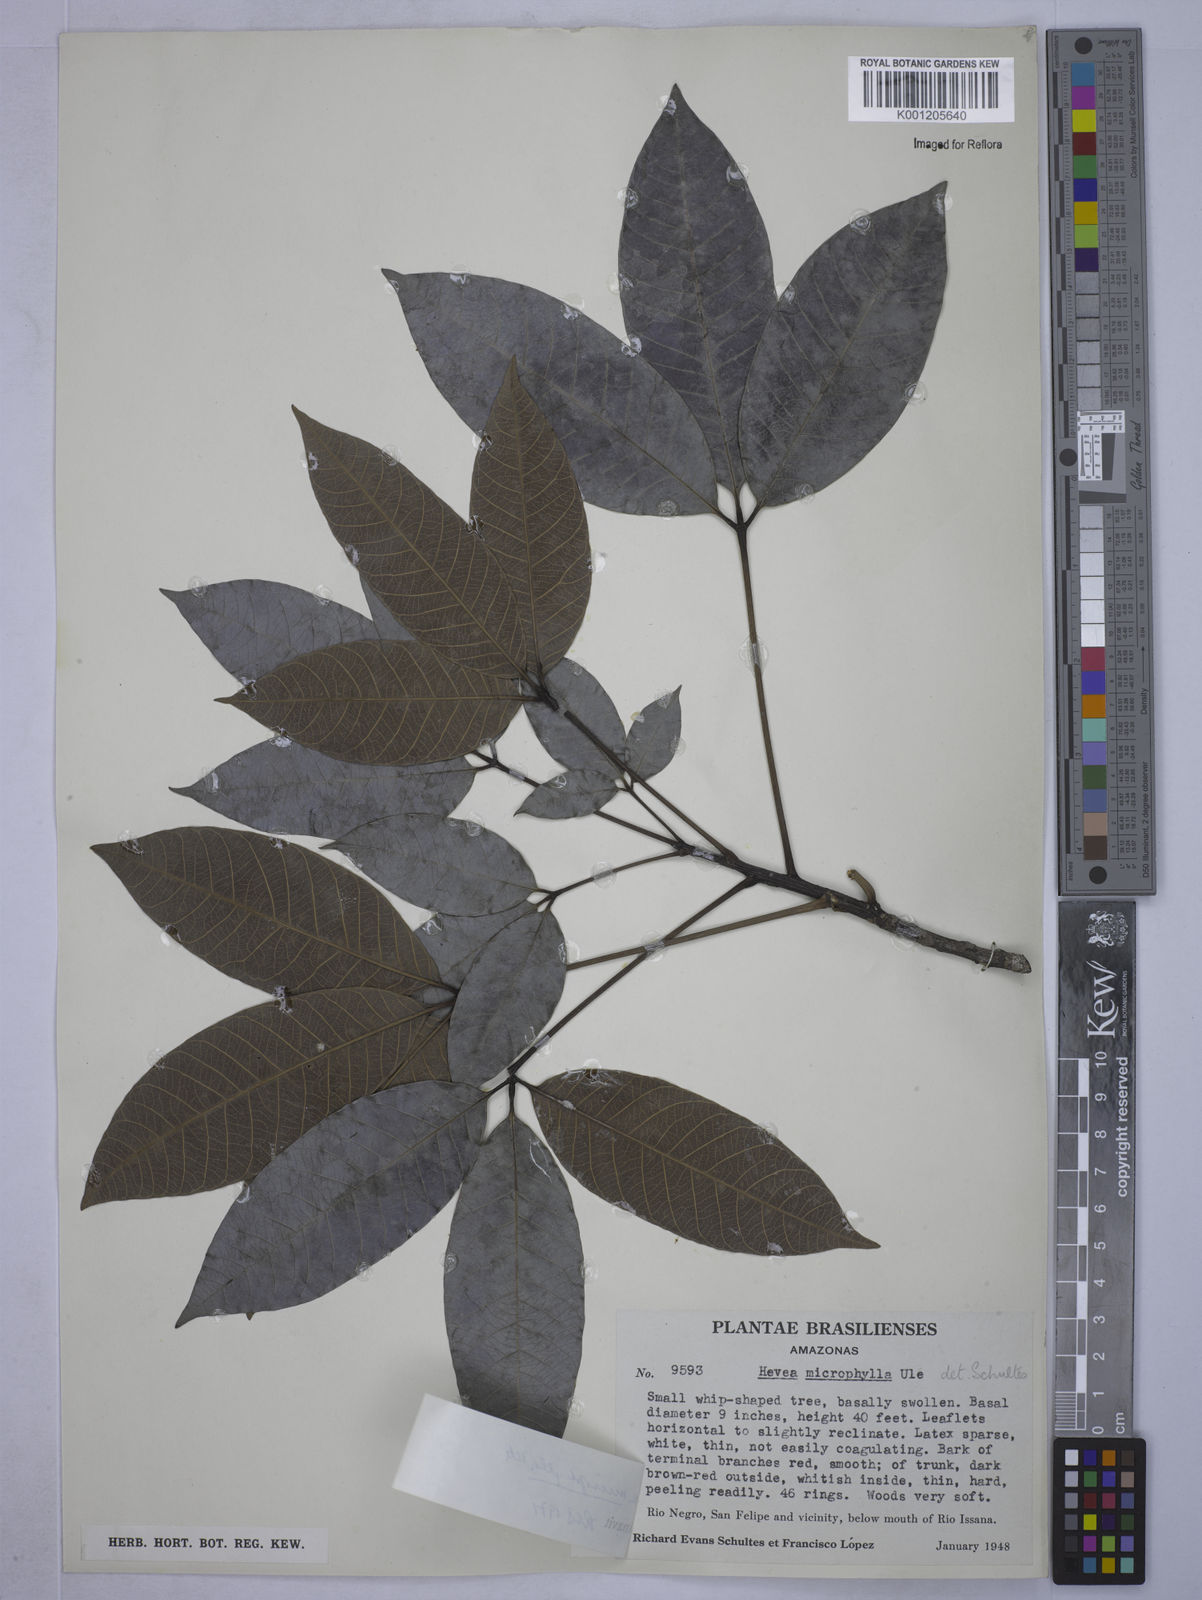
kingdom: Plantae
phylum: Tracheophyta
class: Magnoliopsida
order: Malpighiales
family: Euphorbiaceae
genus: Hevea
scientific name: Hevea microphylla
